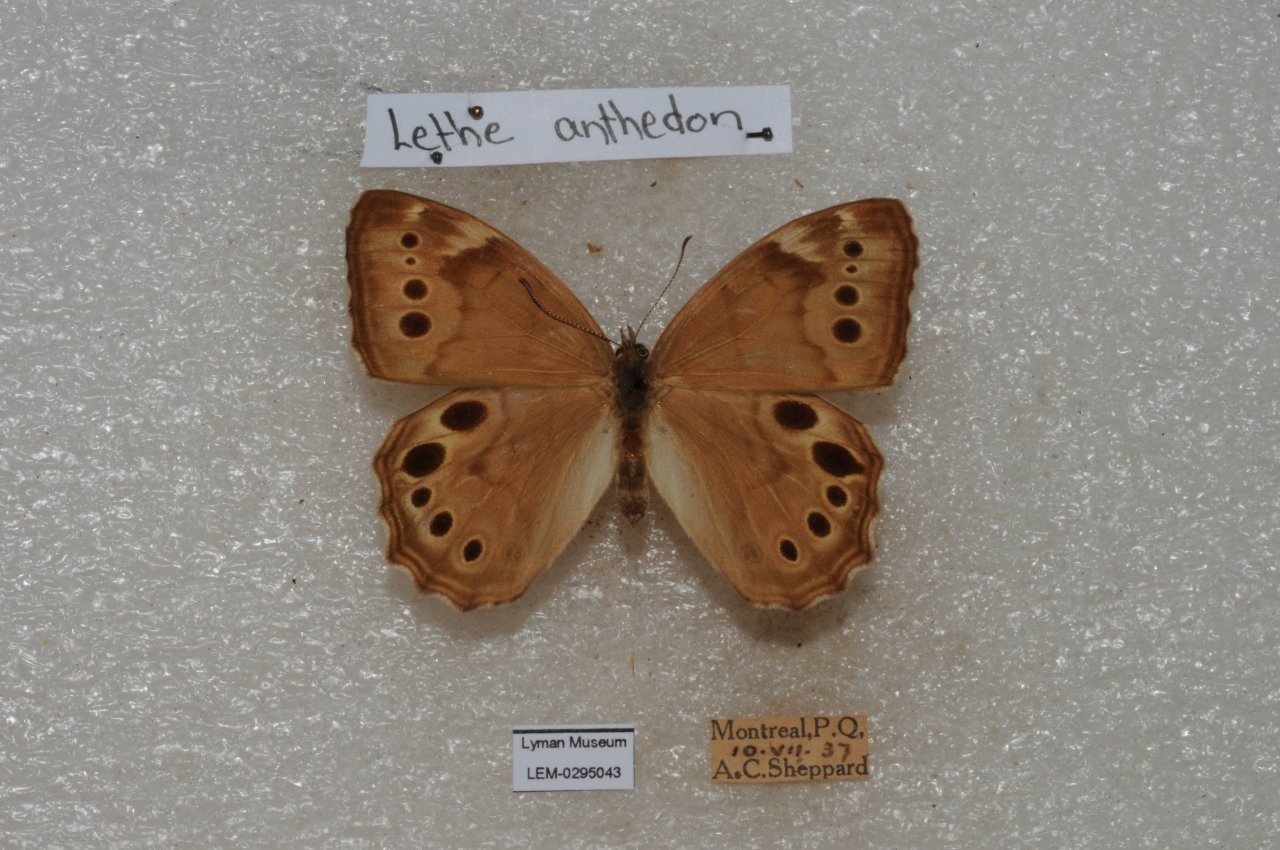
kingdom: Animalia
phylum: Arthropoda
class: Insecta
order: Lepidoptera
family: Nymphalidae
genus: Lethe
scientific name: Lethe anthedon
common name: Northern Pearly-Eye
